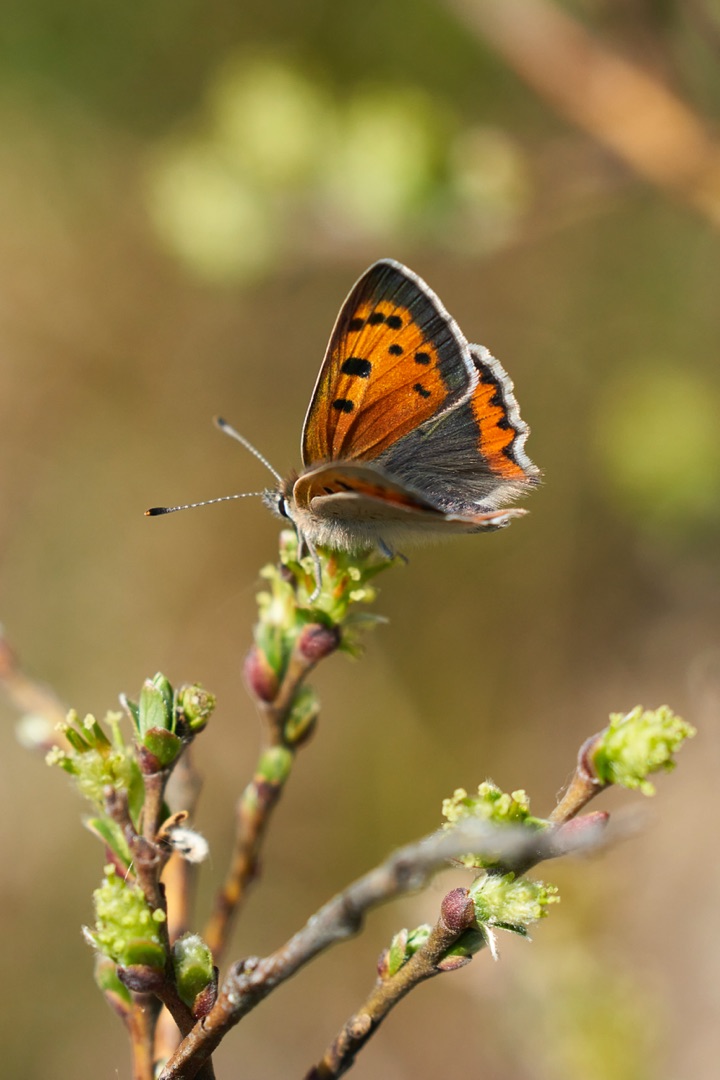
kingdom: Animalia
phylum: Arthropoda
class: Insecta
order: Lepidoptera
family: Lycaenidae
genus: Lycaena
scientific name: Lycaena phlaeas
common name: Lille ildfugl
